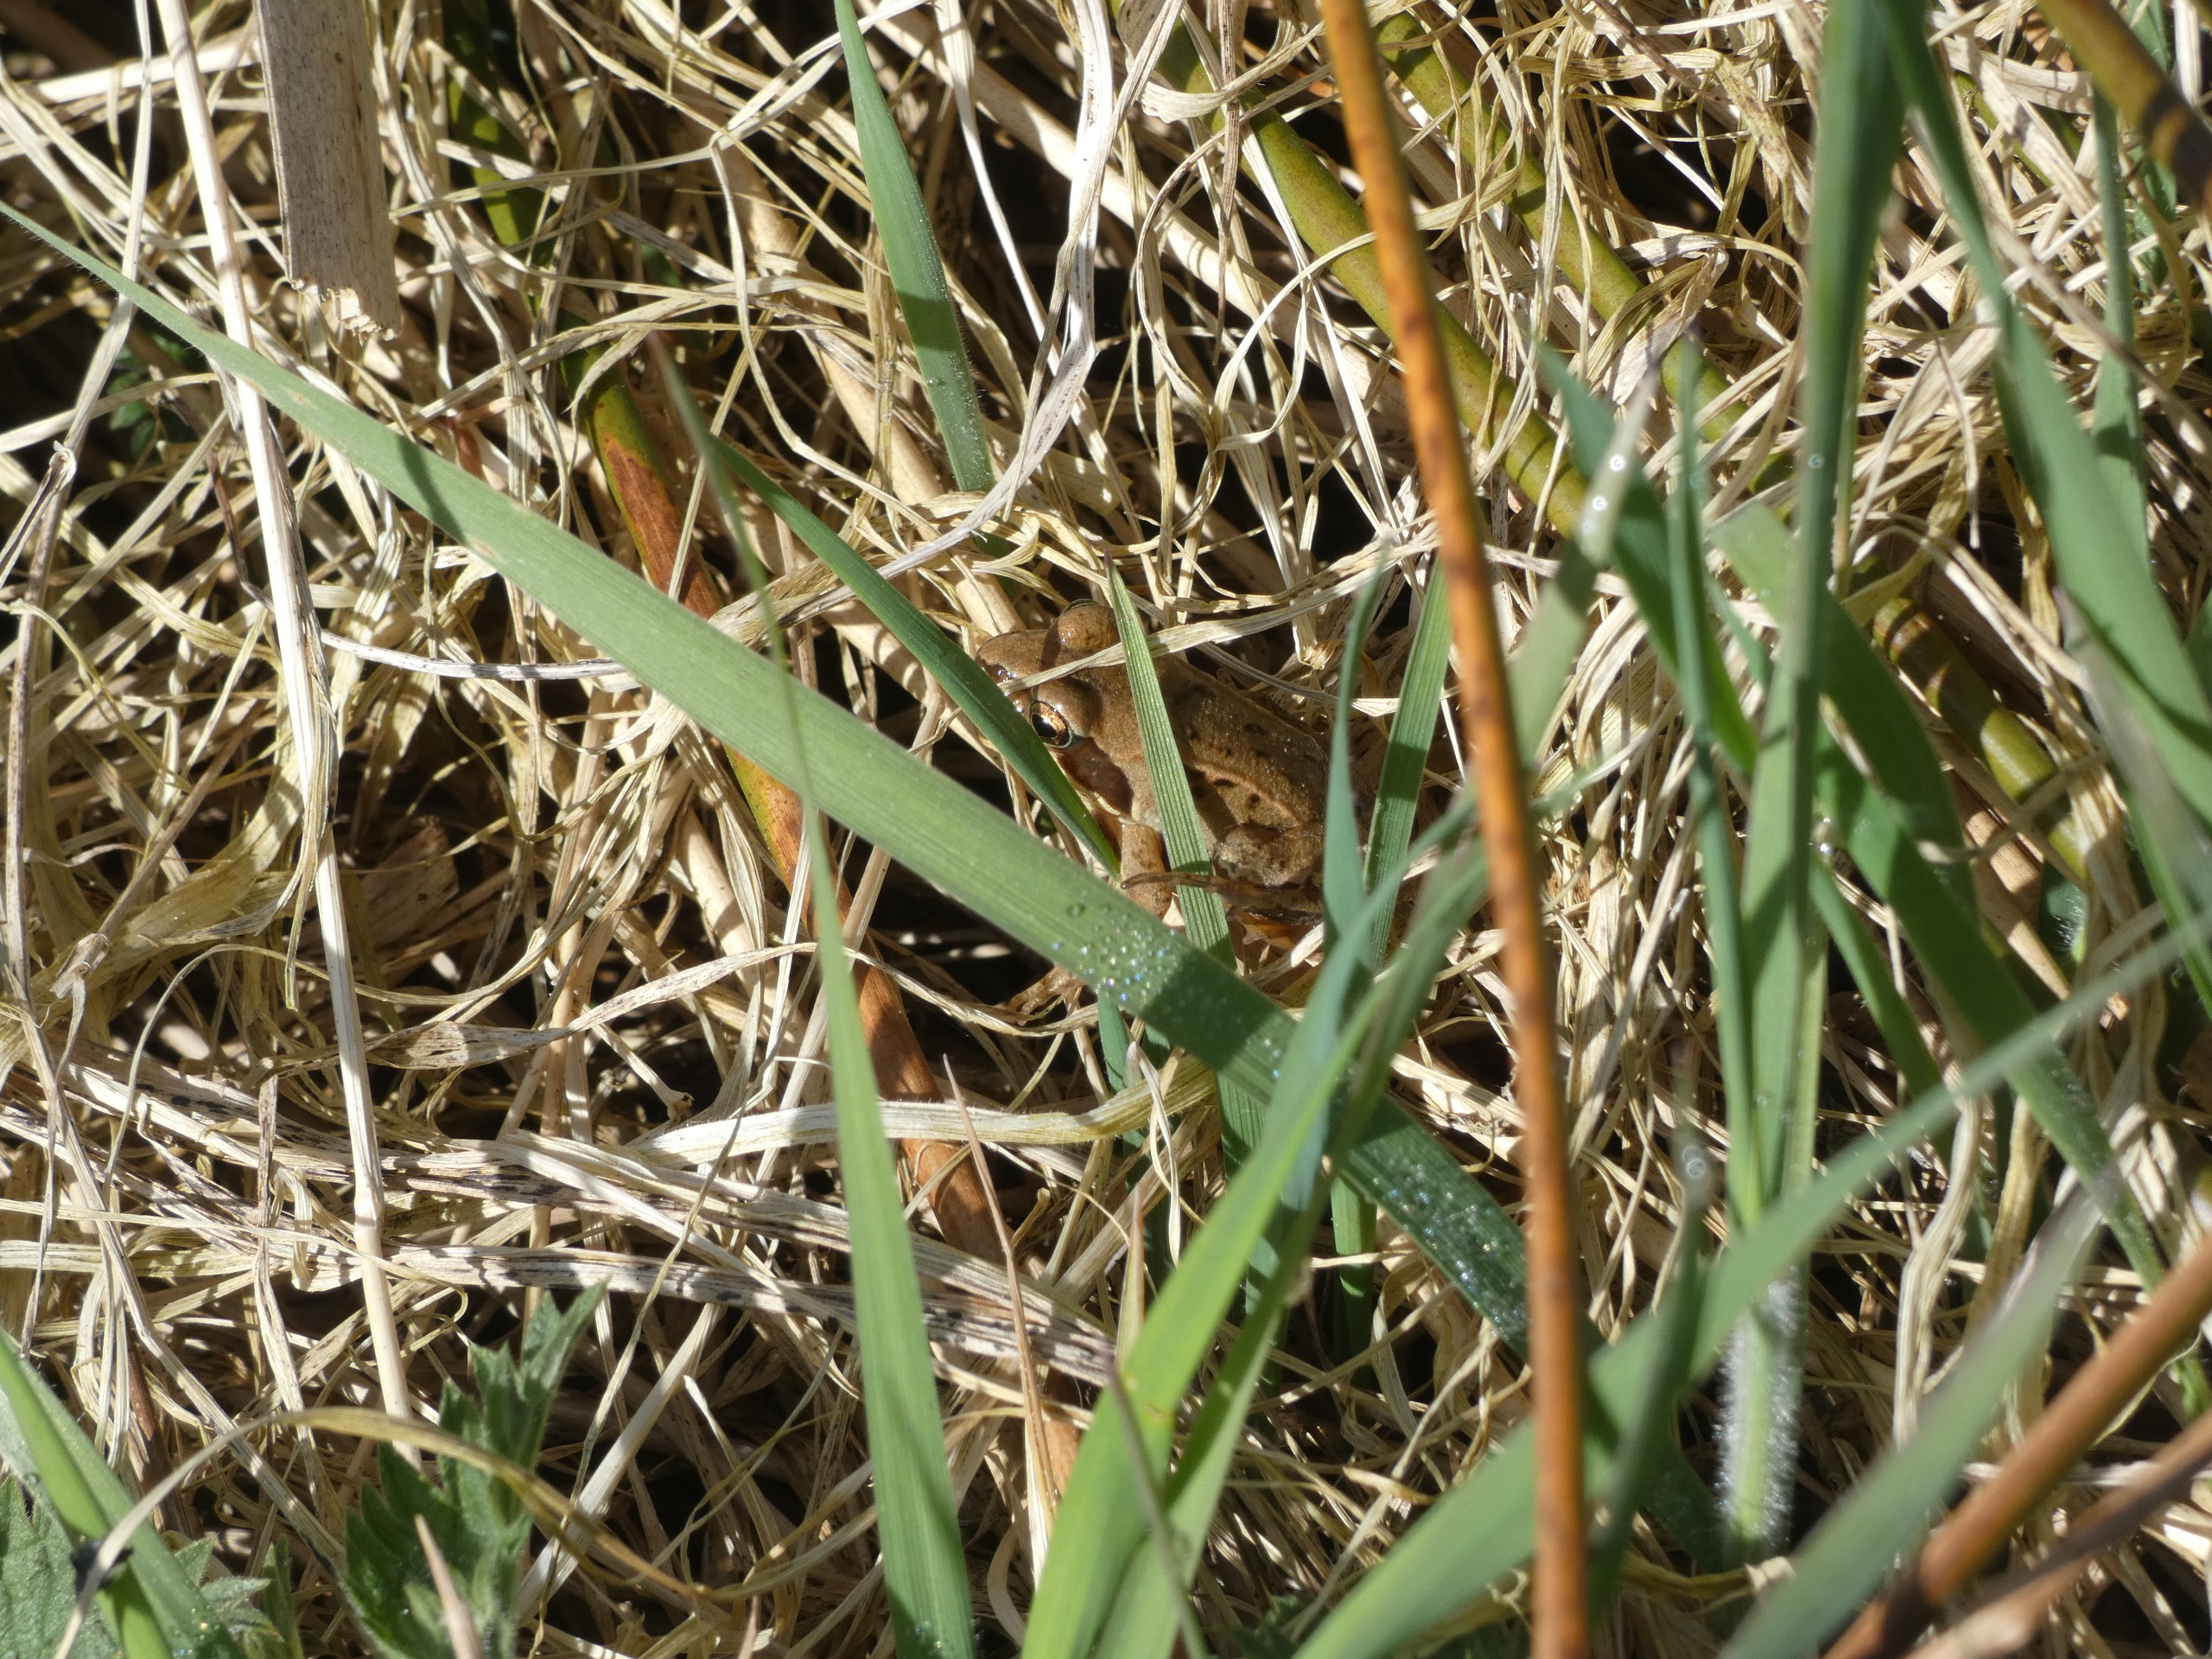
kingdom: Animalia
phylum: Chordata
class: Amphibia
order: Anura
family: Ranidae
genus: Rana
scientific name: Rana
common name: Rana
